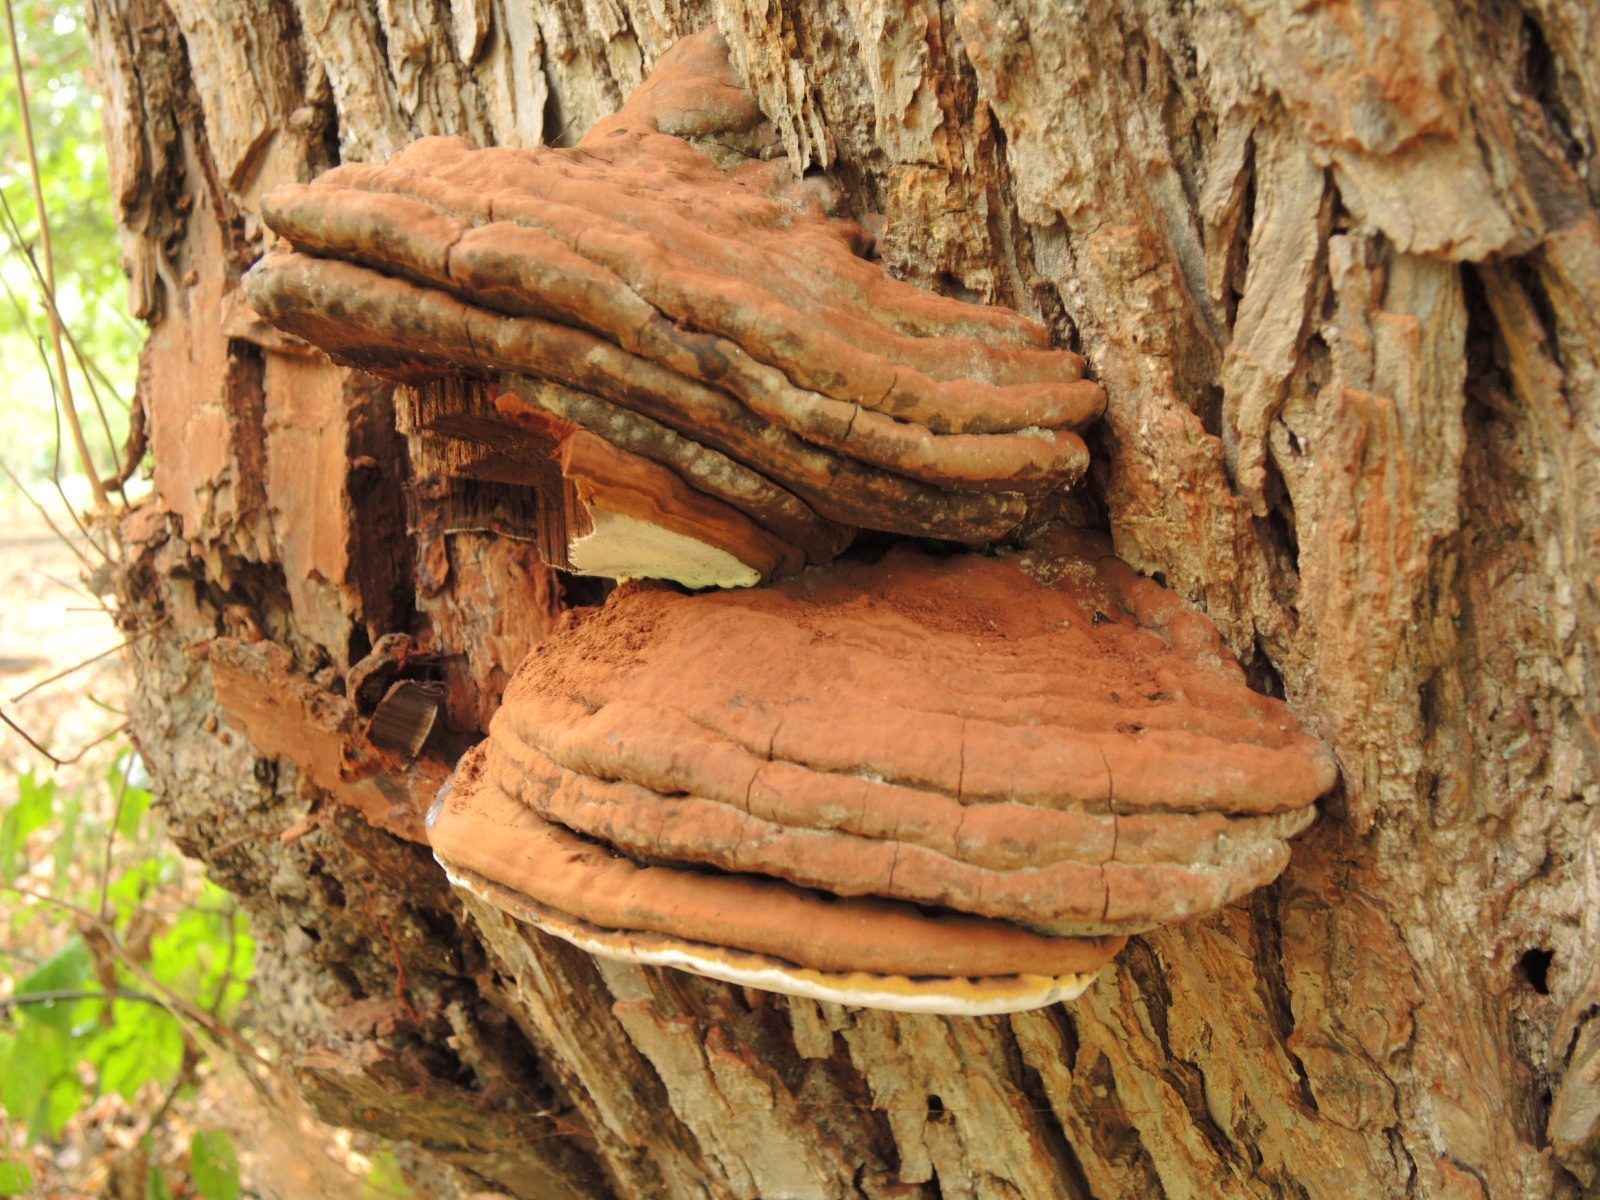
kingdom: Fungi
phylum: Basidiomycota
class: Agaricomycetes
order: Polyporales
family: Polyporaceae
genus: Ganoderma
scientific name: Ganoderma adspersum
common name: grov lakporesvamp
